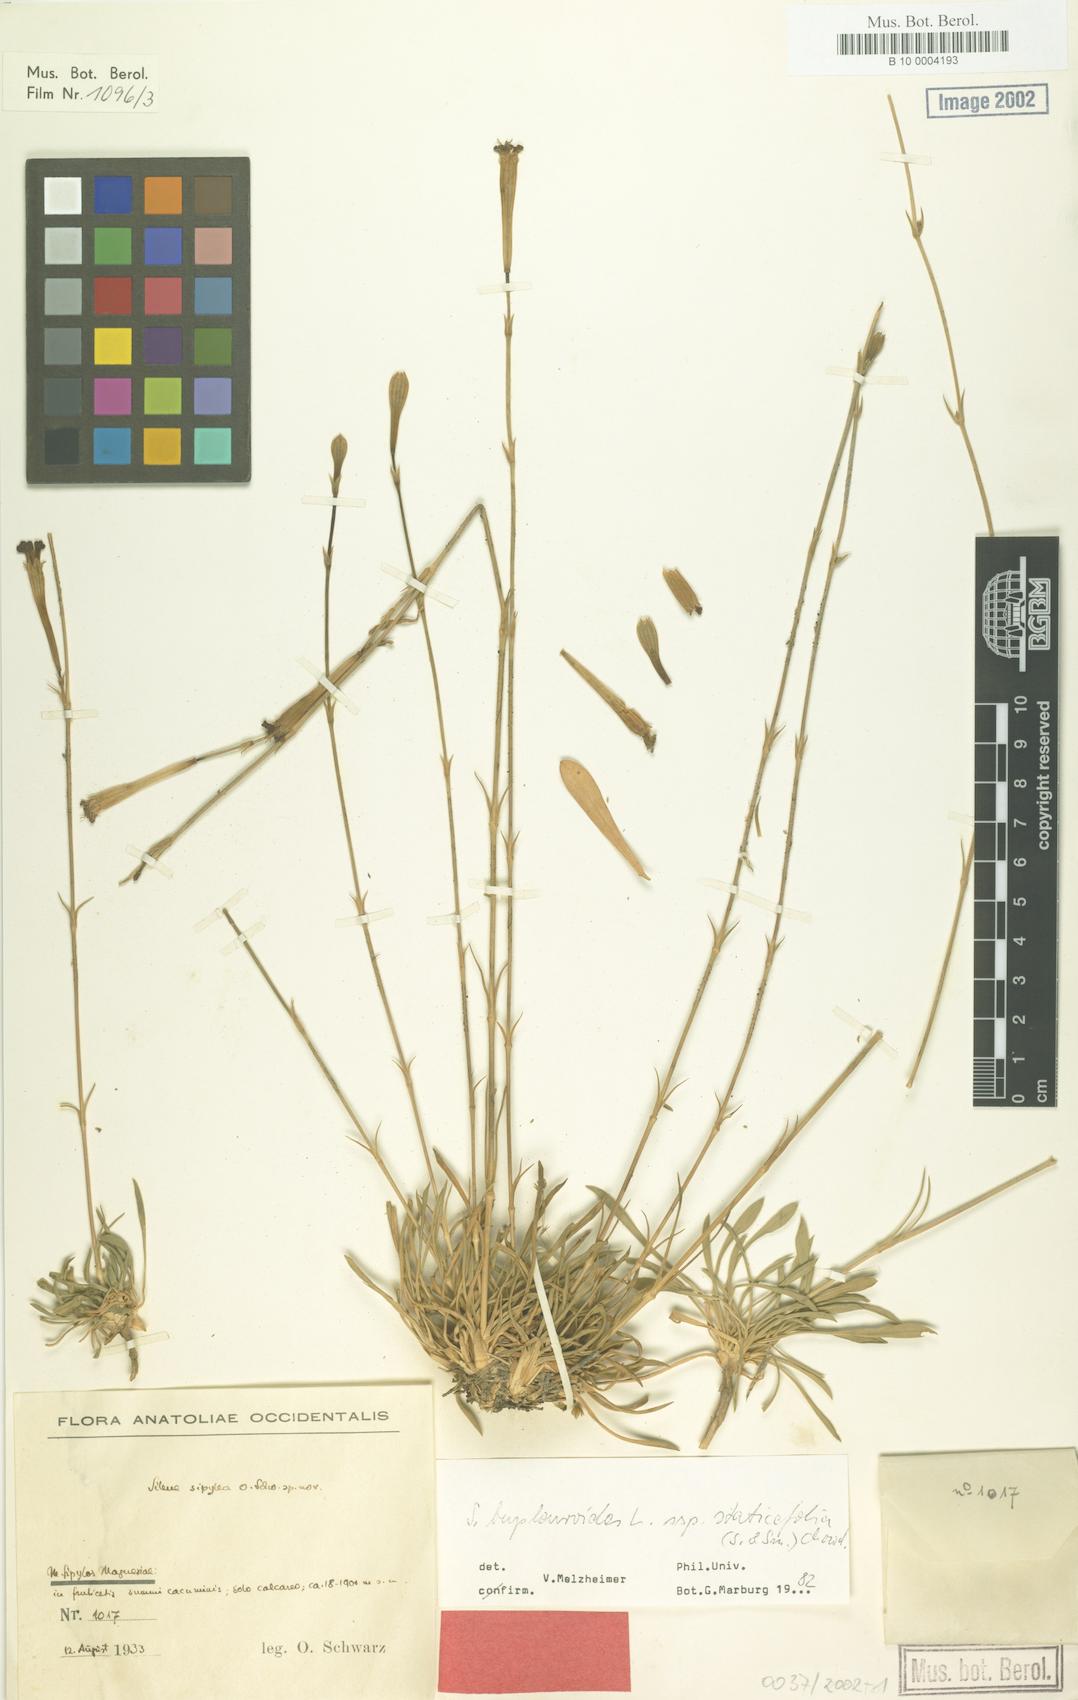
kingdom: Plantae
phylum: Tracheophyta
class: Magnoliopsida
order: Caryophyllales
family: Caryophyllaceae
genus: Silene
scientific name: Silene bupleuroides
